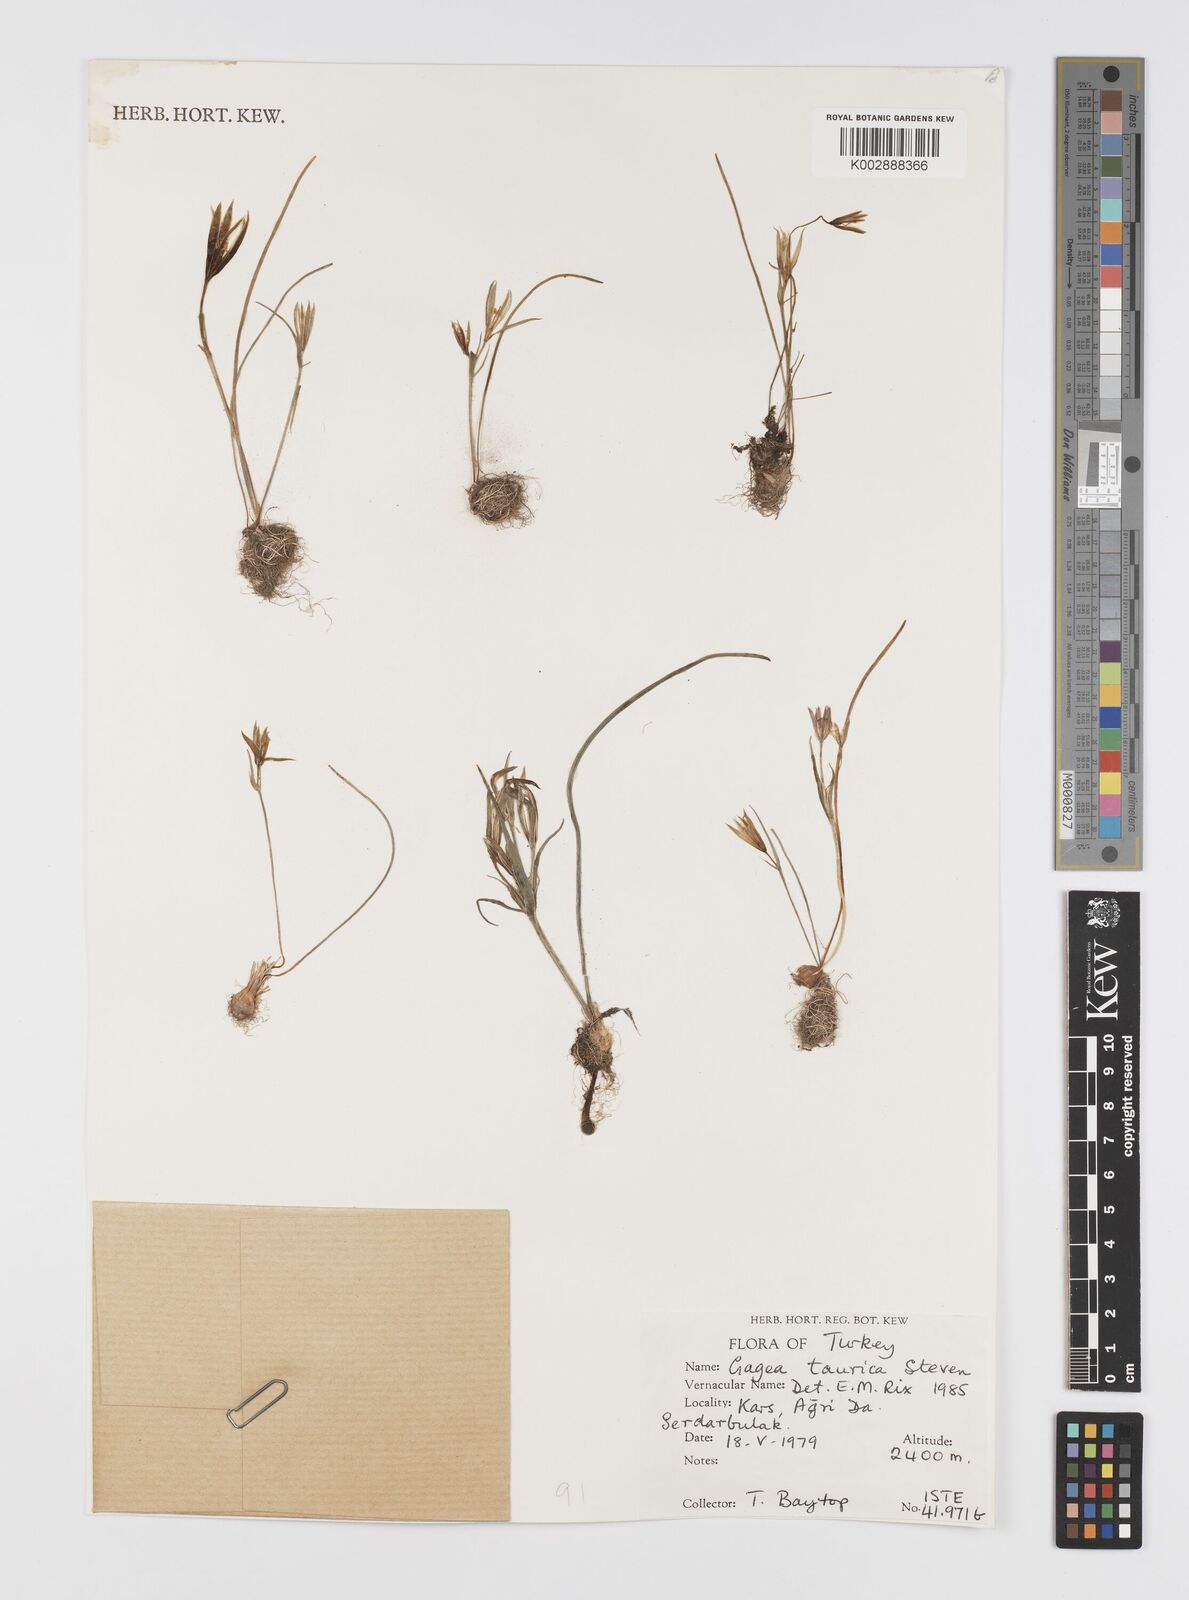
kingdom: Plantae
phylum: Tracheophyta
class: Liliopsida
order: Liliales
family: Liliaceae
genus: Gagea
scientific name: Gagea taurica
